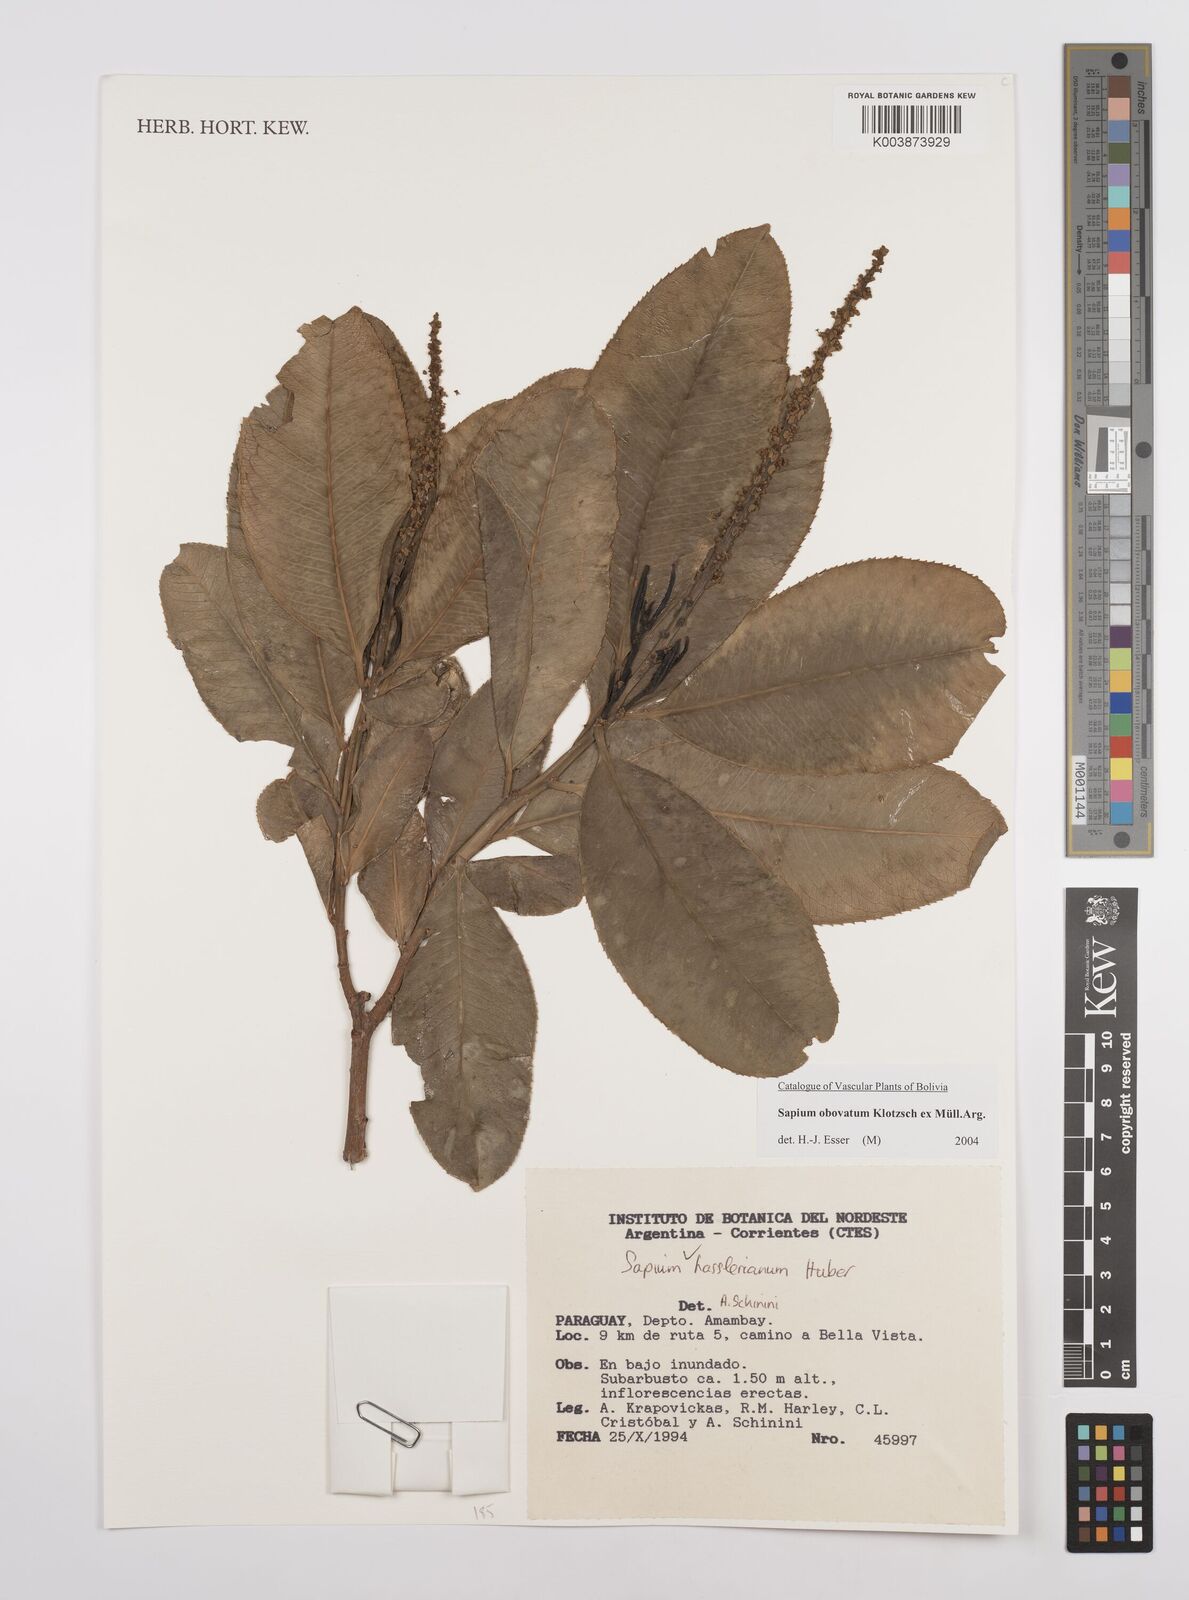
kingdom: Plantae
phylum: Tracheophyta
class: Magnoliopsida
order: Malpighiales
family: Euphorbiaceae
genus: Sapium
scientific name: Sapium obovatum
